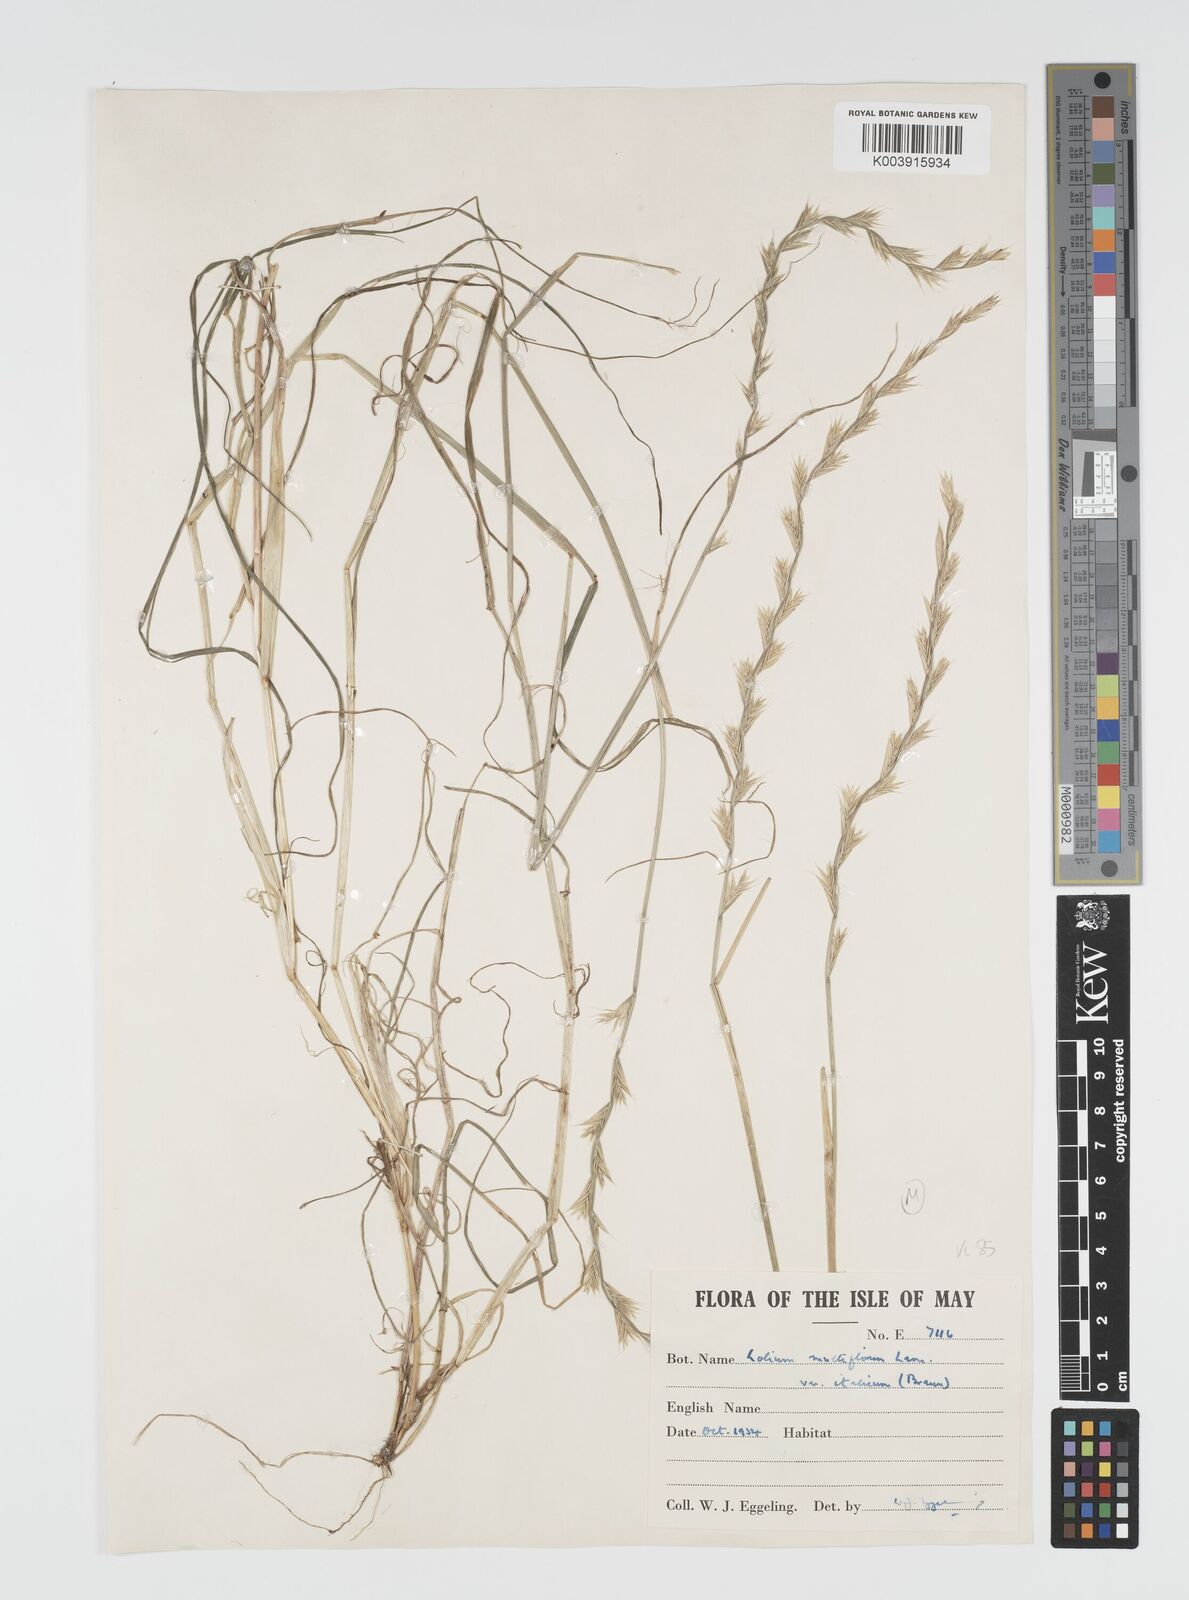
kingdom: Plantae
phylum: Tracheophyta
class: Liliopsida
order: Poales
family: Poaceae
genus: Lolium
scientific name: Lolium multiflorum
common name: Annual ryegrass
